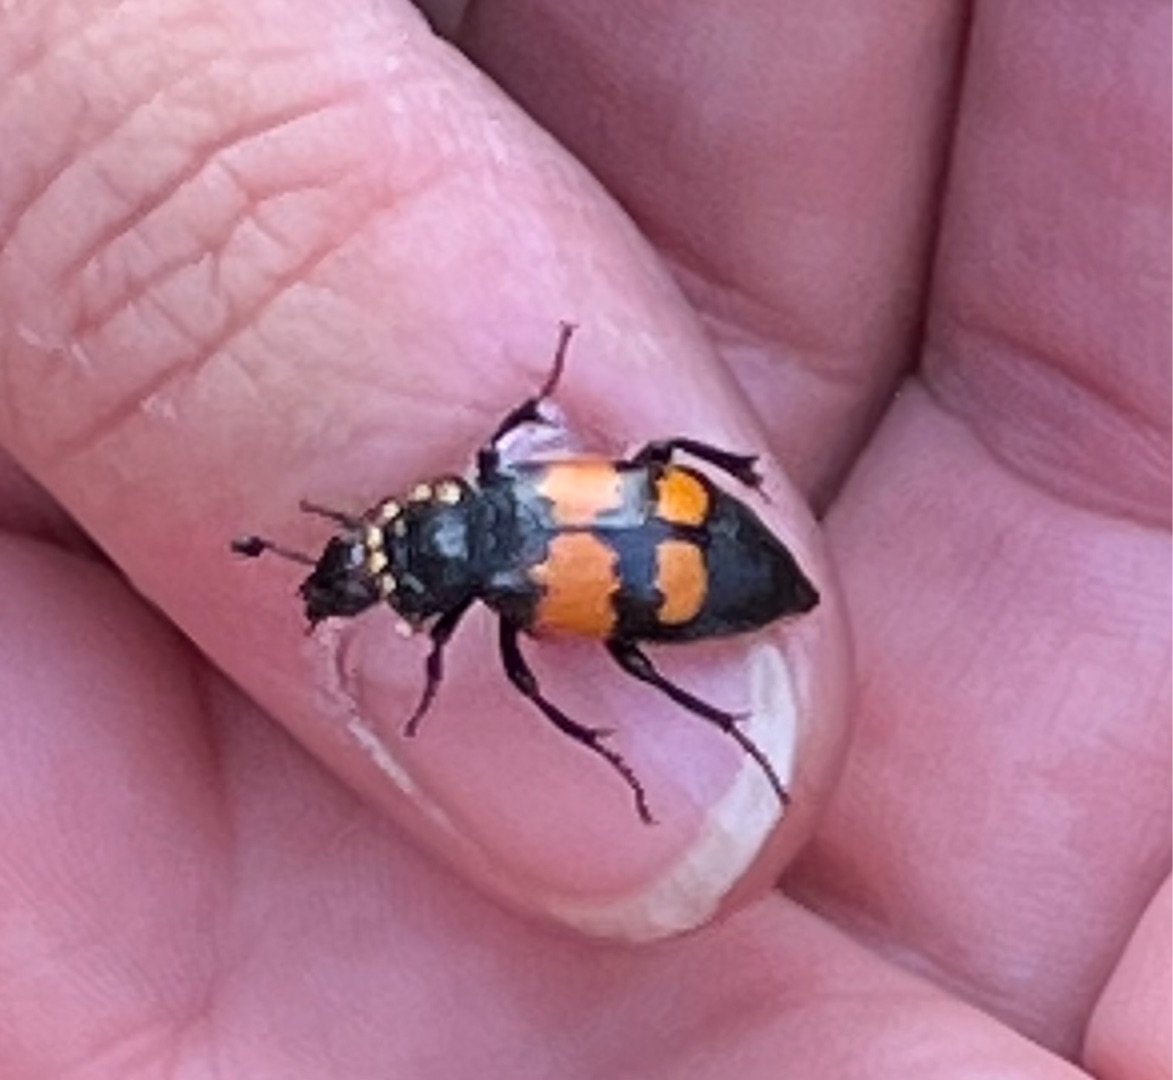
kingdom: Animalia
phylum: Arthropoda
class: Insecta
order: Coleoptera
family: Staphylinidae
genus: Nicrophorus
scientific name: Nicrophorus vespilloides
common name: Sortkøllet ådselgraver
